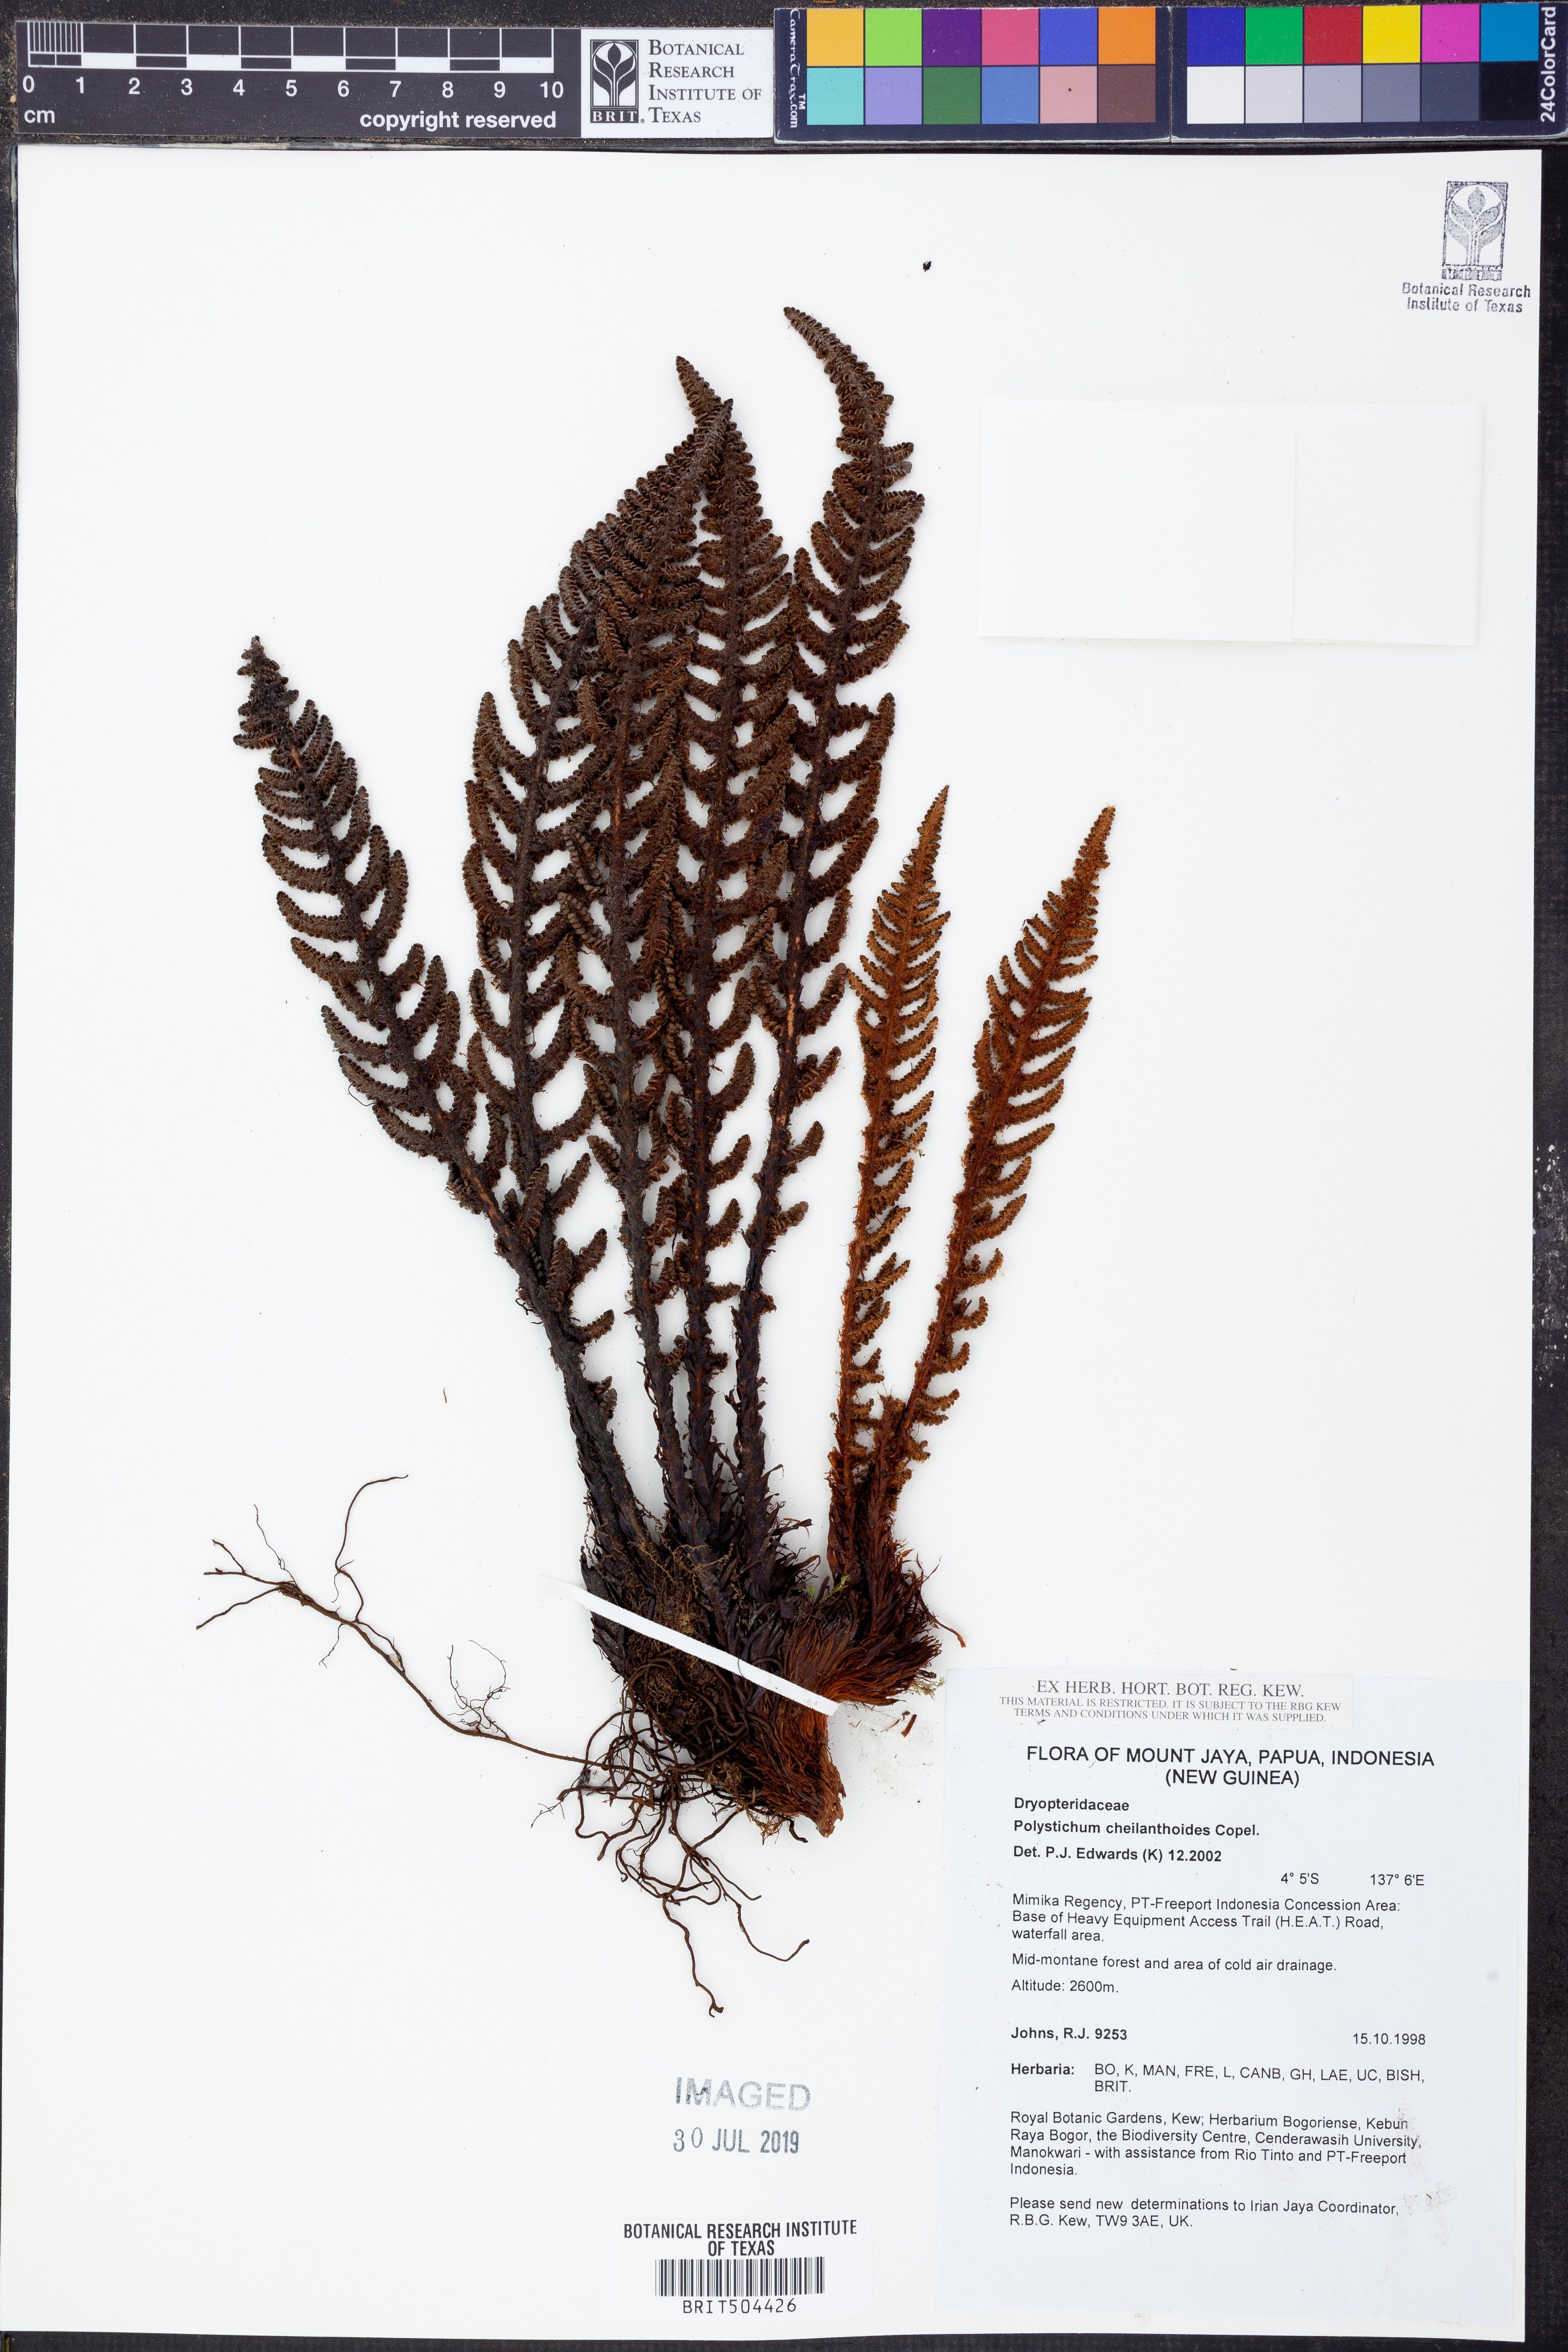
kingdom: Plantae
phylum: Tracheophyta
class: Polypodiopsida
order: Polypodiales
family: Dryopteridaceae
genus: Polystichum
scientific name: Polystichum cheilanthoides
